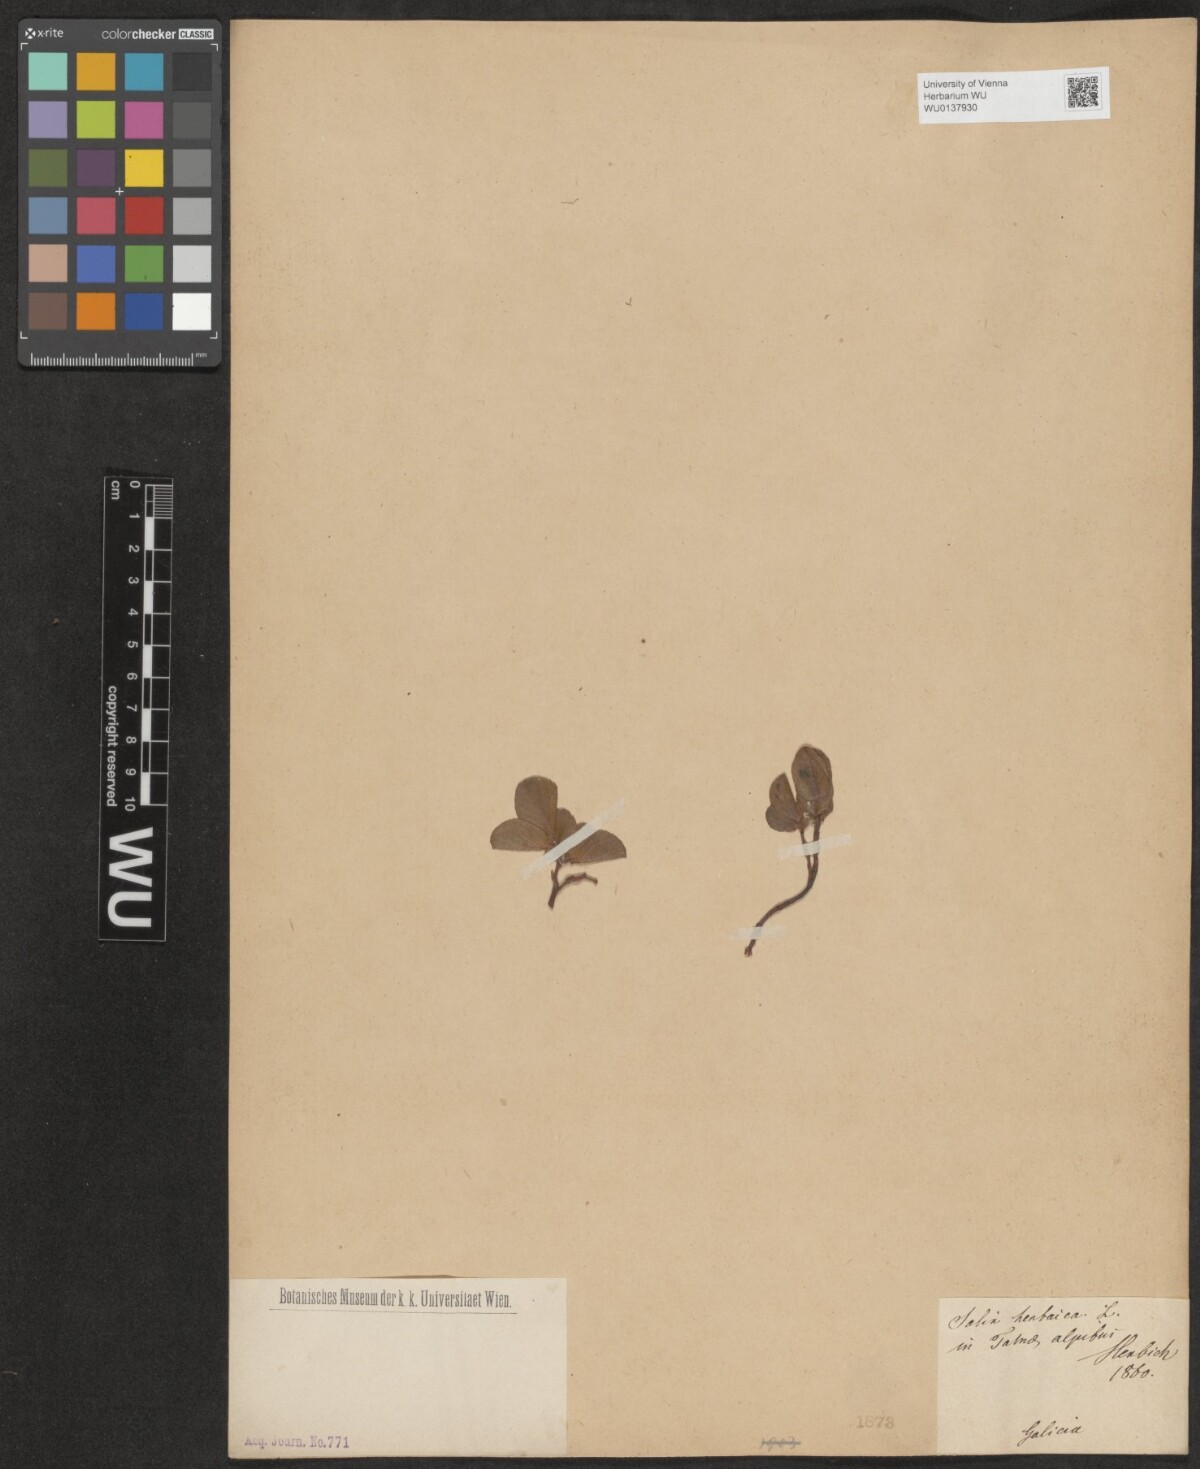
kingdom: Plantae
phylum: Tracheophyta
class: Magnoliopsida
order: Malpighiales
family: Salicaceae
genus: Salix
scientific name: Salix herbacea
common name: Dwarf willow
